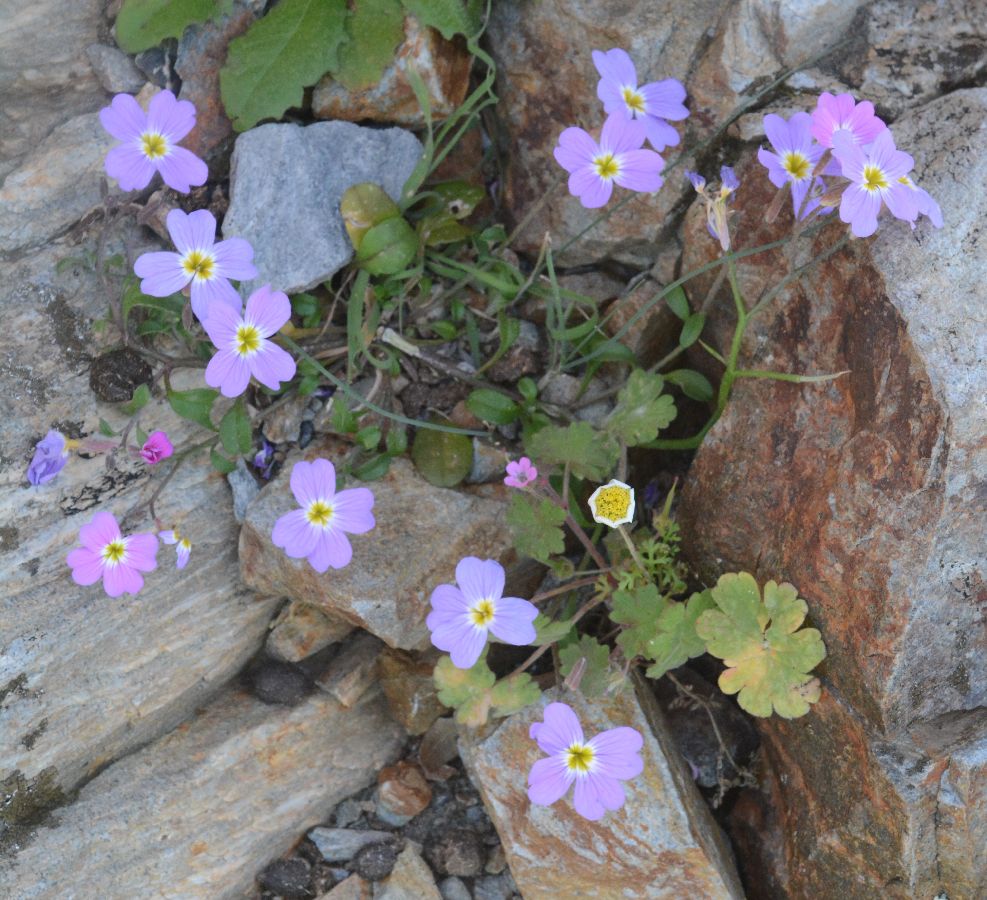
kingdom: Plantae
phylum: Tracheophyta
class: Magnoliopsida
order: Brassicales
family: Brassicaceae
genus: Malcolmia
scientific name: Malcolmia flexuosa
